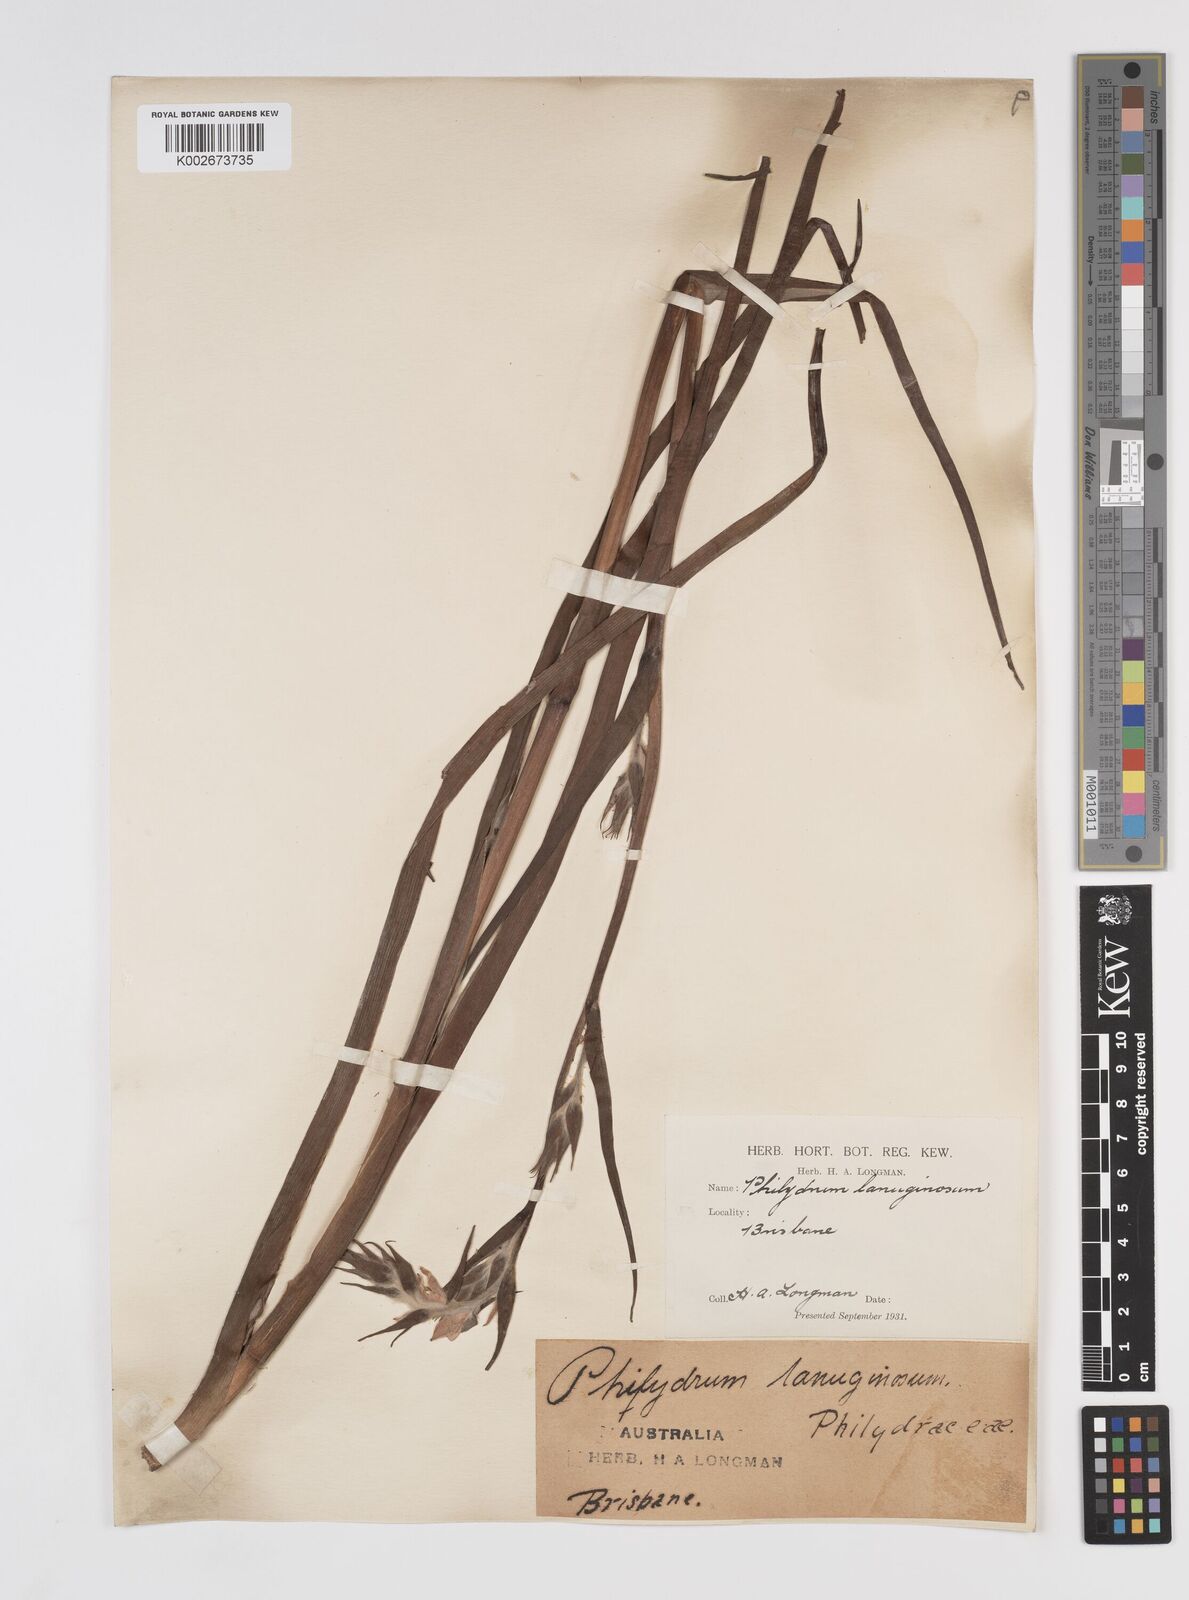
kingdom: Plantae
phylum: Tracheophyta
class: Liliopsida
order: Commelinales
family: Philydraceae
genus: Philydrum
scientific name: Philydrum lanuginosum
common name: Woolly frog's mouth
